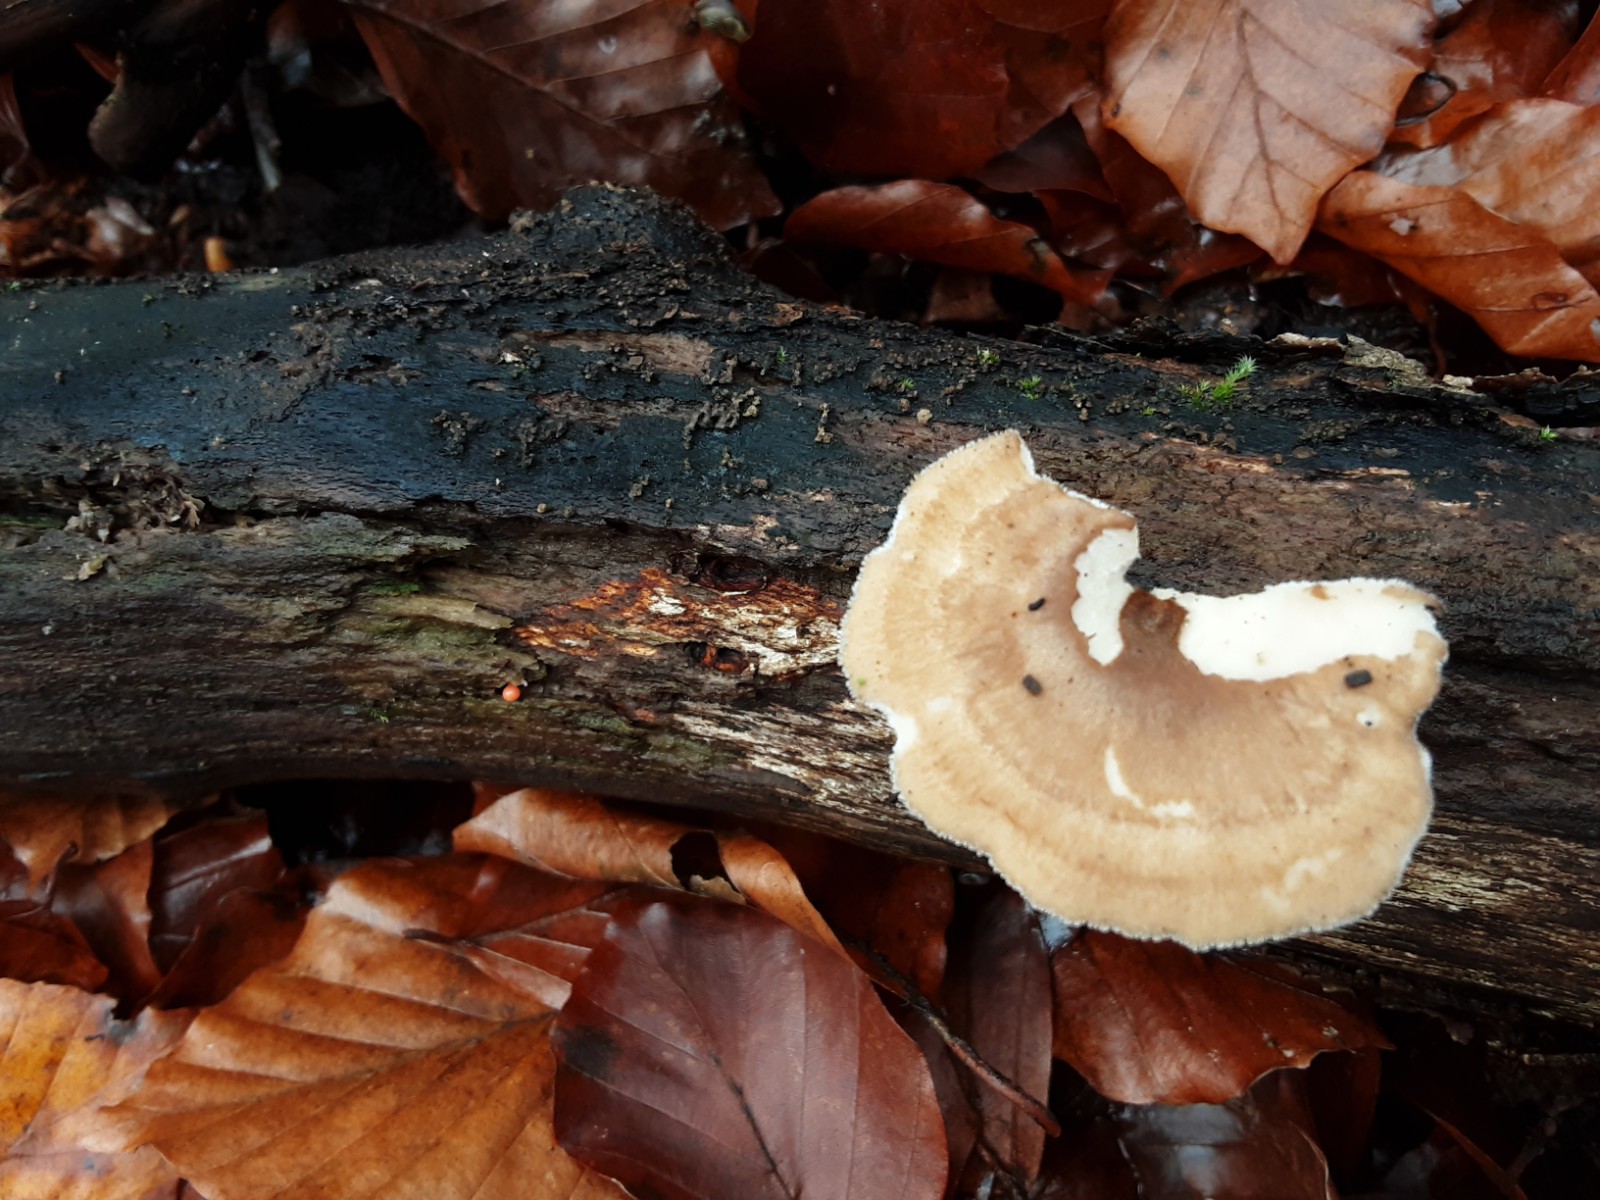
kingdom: Fungi
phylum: Basidiomycota
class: Agaricomycetes
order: Polyporales
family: Polyporaceae
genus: Lentinus
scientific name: Lentinus brumalis
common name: vinter-stilkporesvamp
